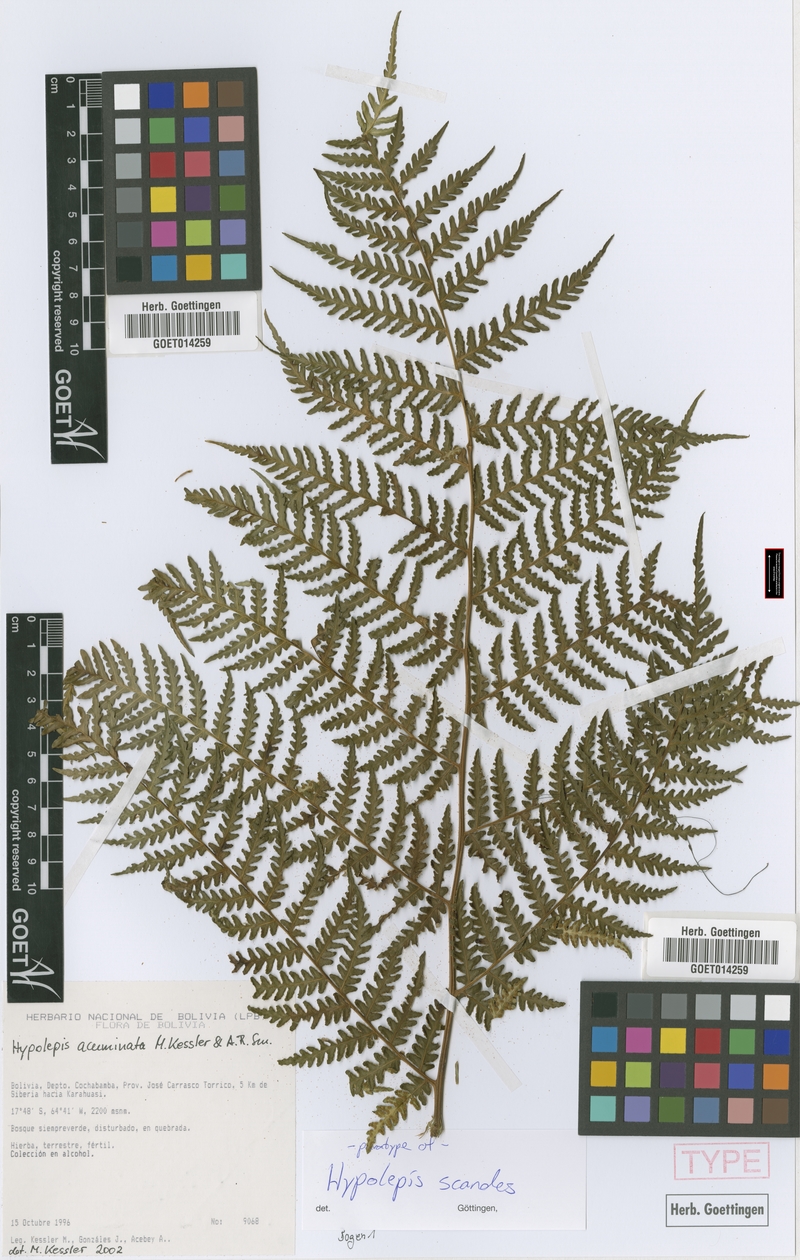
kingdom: Plantae
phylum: Tracheophyta
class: Polypodiopsida
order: Polypodiales
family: Dennstaedtiaceae
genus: Hypolepis
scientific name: Hypolepis scandens
